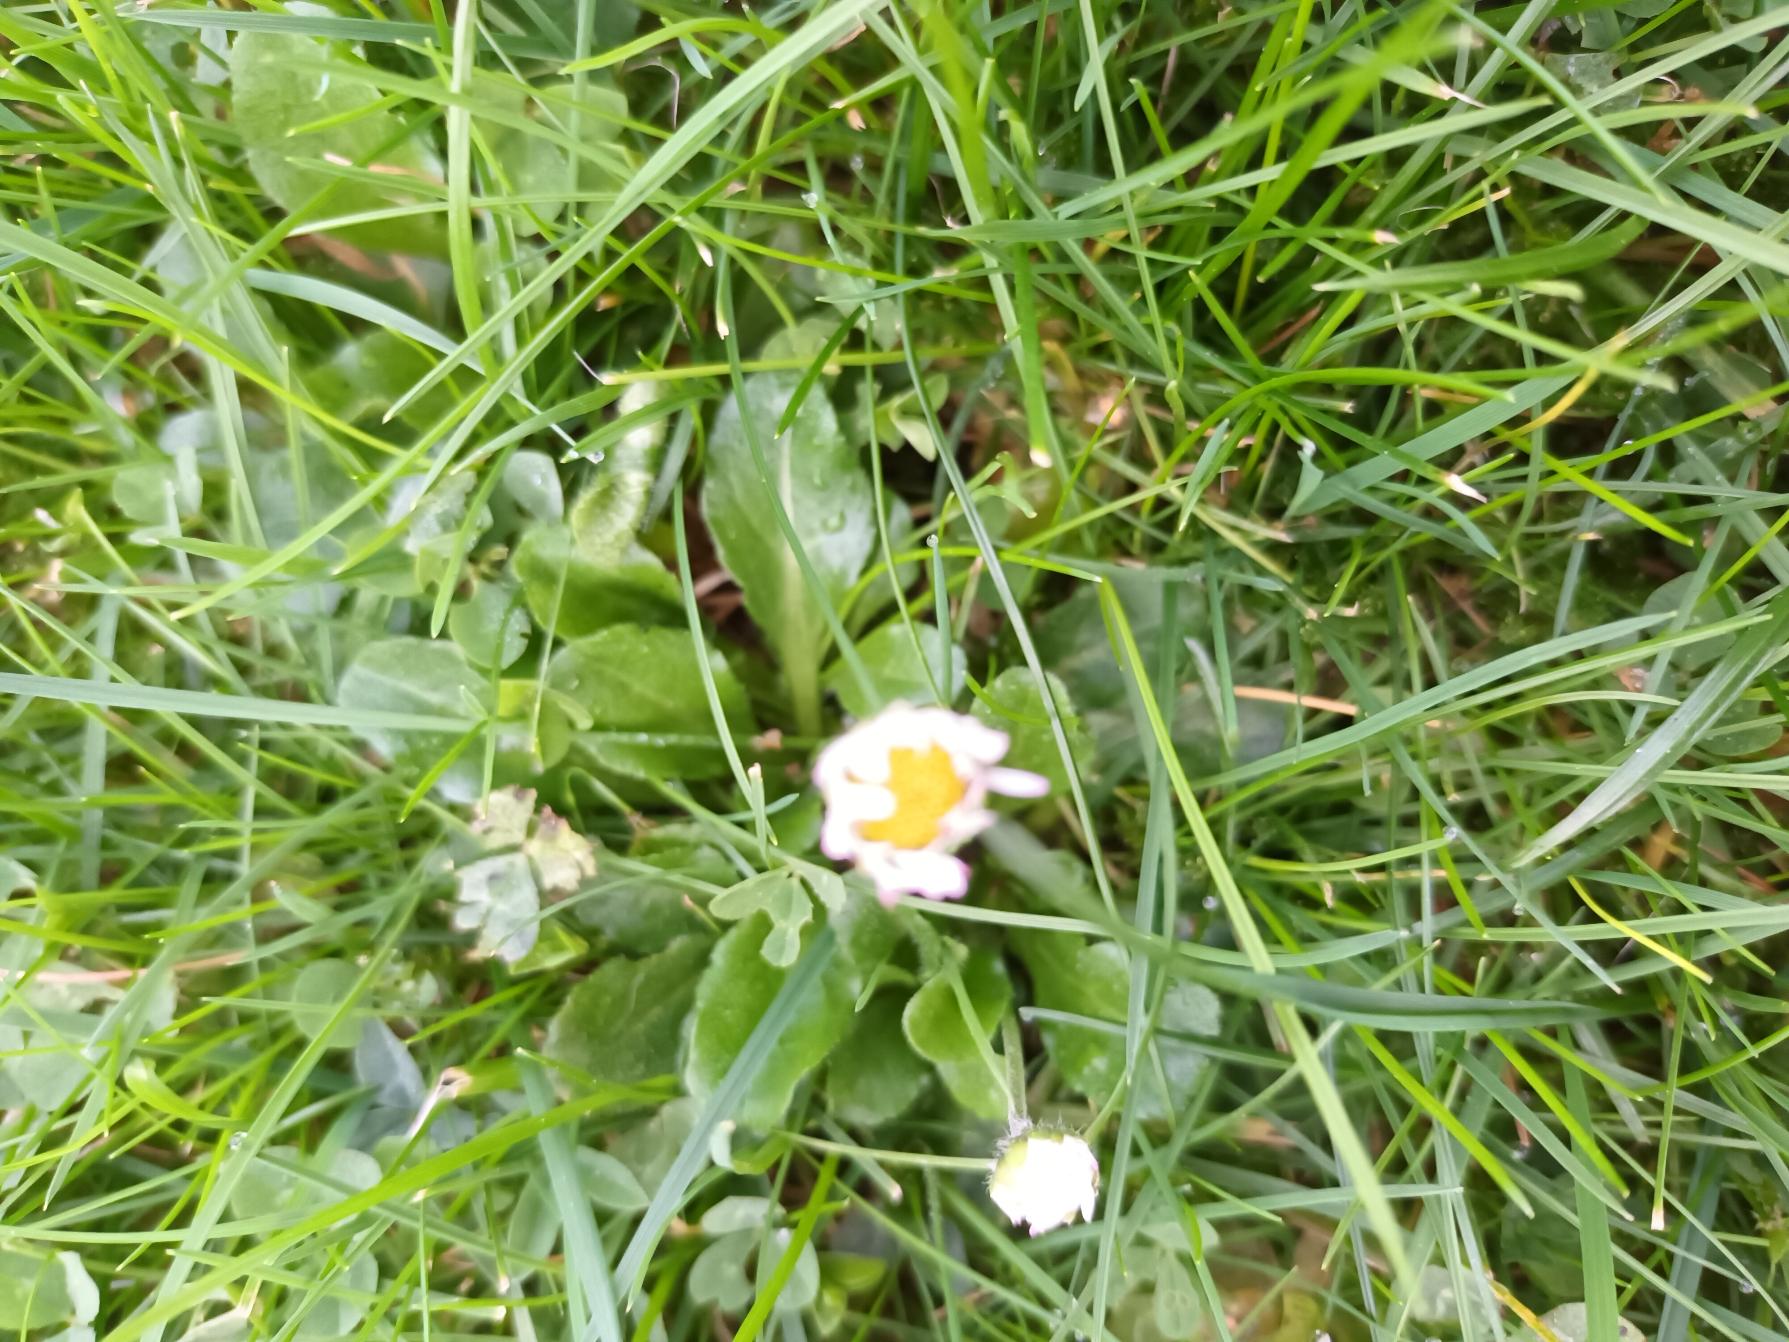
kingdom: Plantae
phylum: Tracheophyta
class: Magnoliopsida
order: Asterales
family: Asteraceae
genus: Bellis
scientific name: Bellis perennis
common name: Tusindfryd
